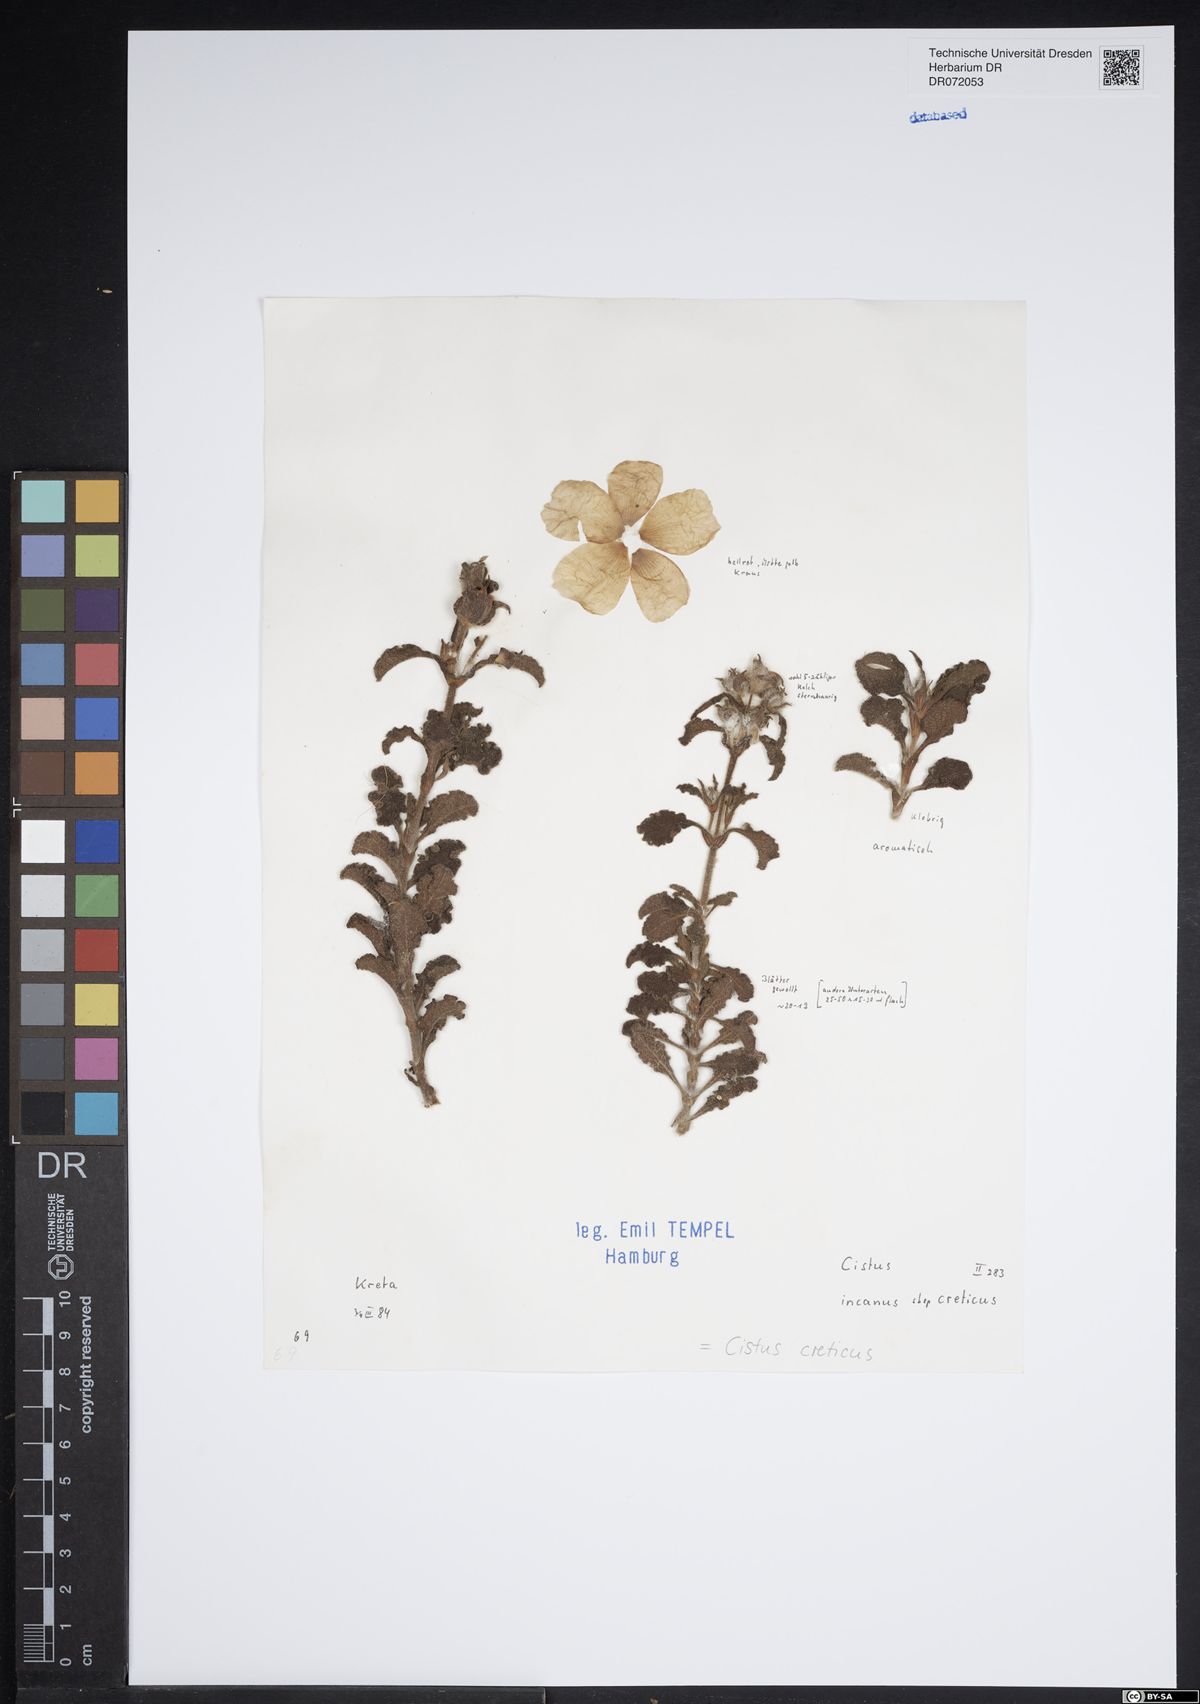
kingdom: Plantae
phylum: Tracheophyta
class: Magnoliopsida
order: Malvales
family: Cistaceae
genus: Cistus
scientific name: Cistus creticus
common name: Cretan rockrose
